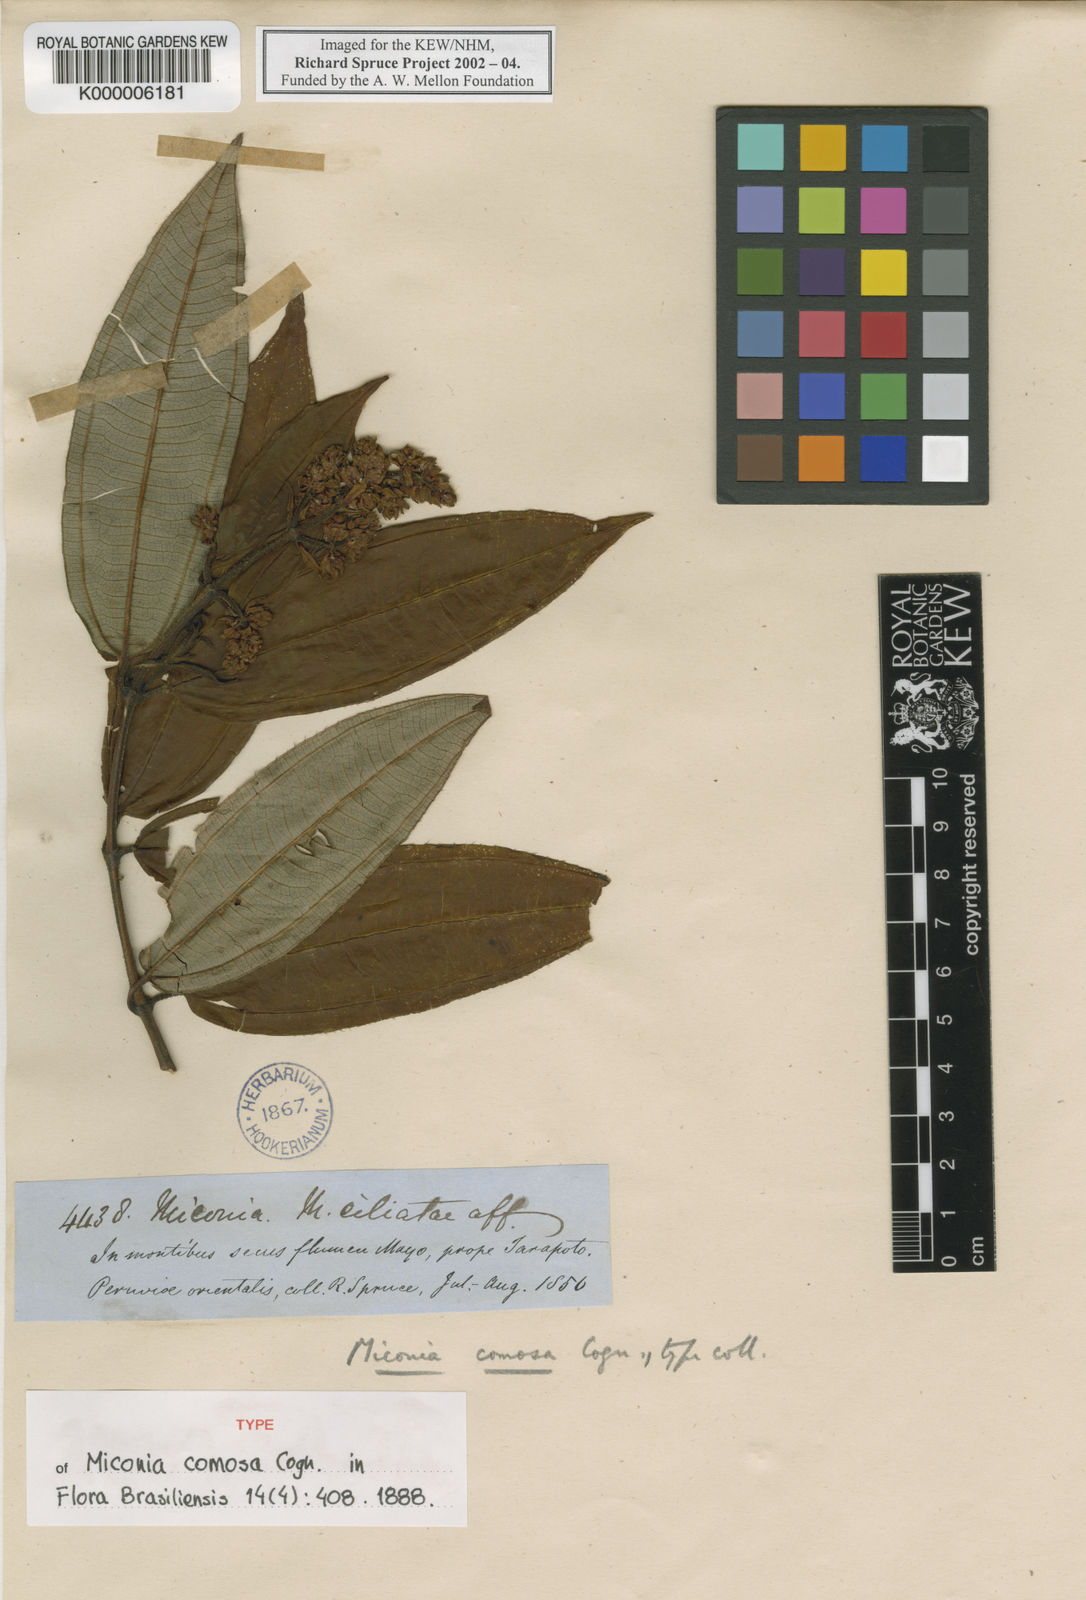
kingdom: Plantae
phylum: Tracheophyta
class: Magnoliopsida
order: Myrtales
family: Melastomataceae
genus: Miconia
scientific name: Miconia comosa
